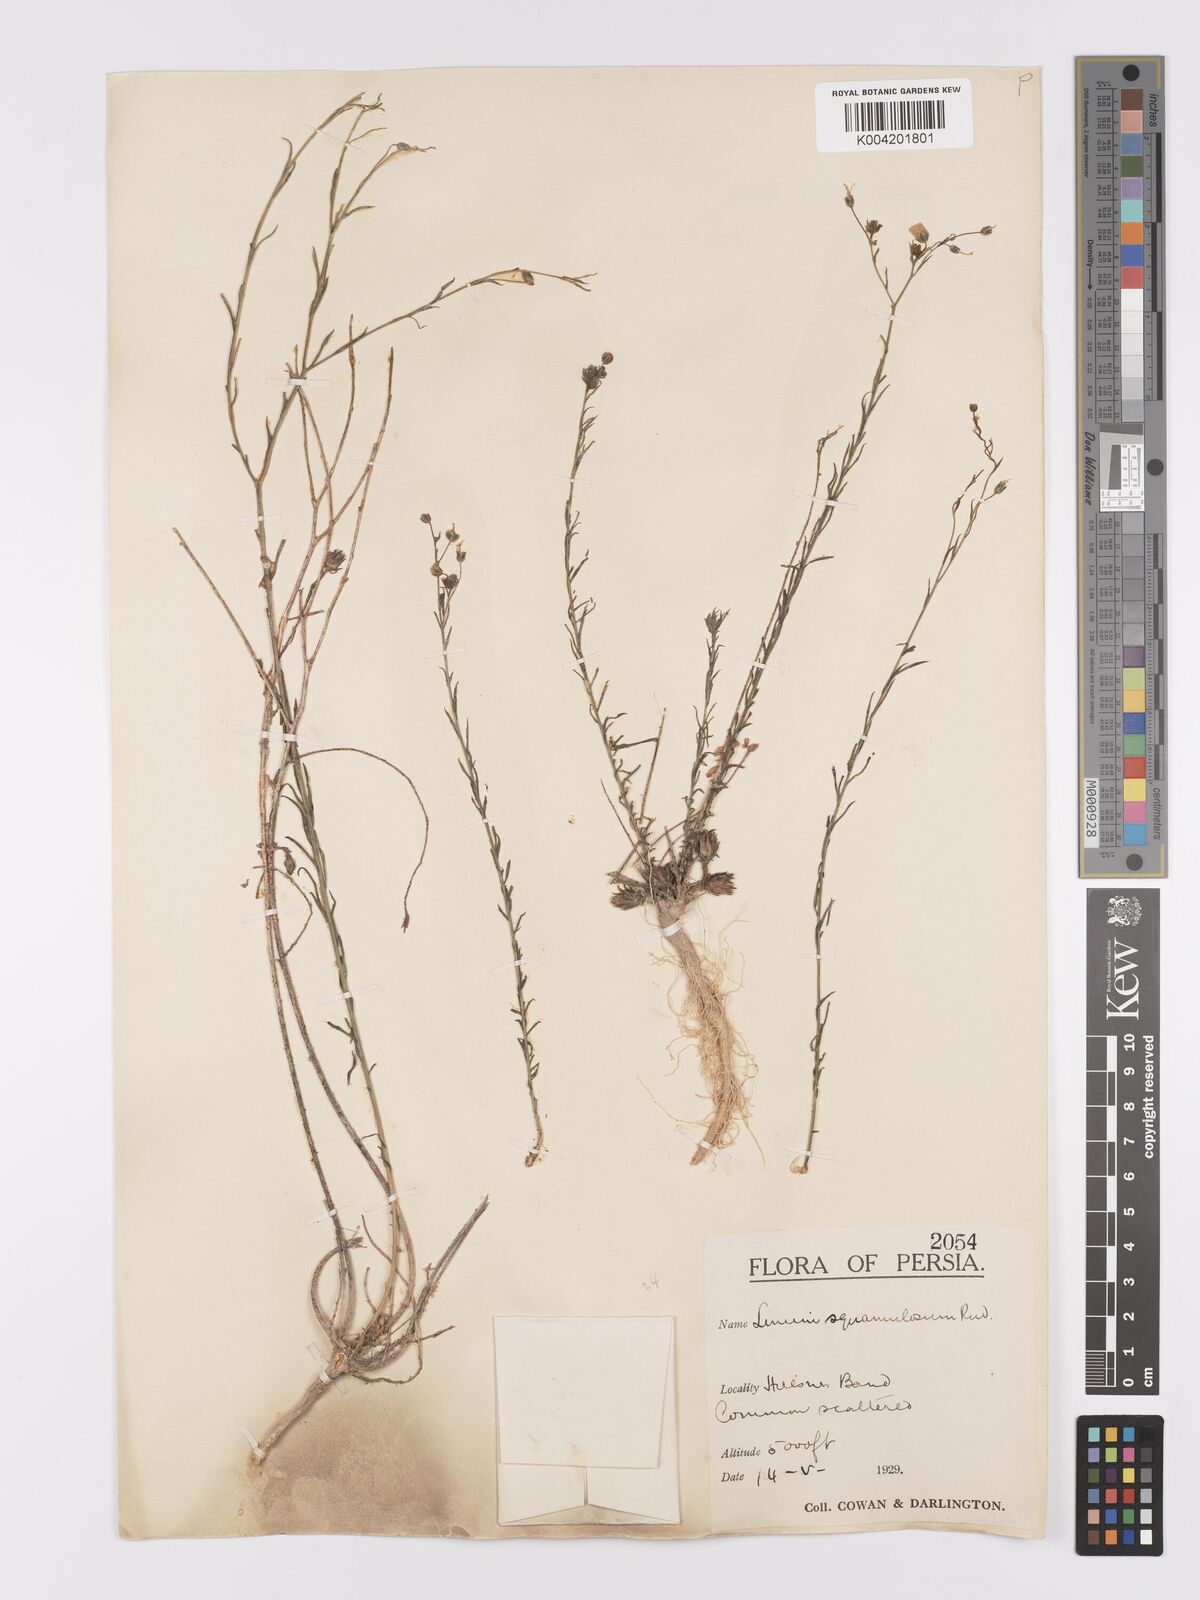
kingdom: Plantae
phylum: Tracheophyta
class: Magnoliopsida
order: Malpighiales
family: Linaceae
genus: Linum
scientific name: Linum
